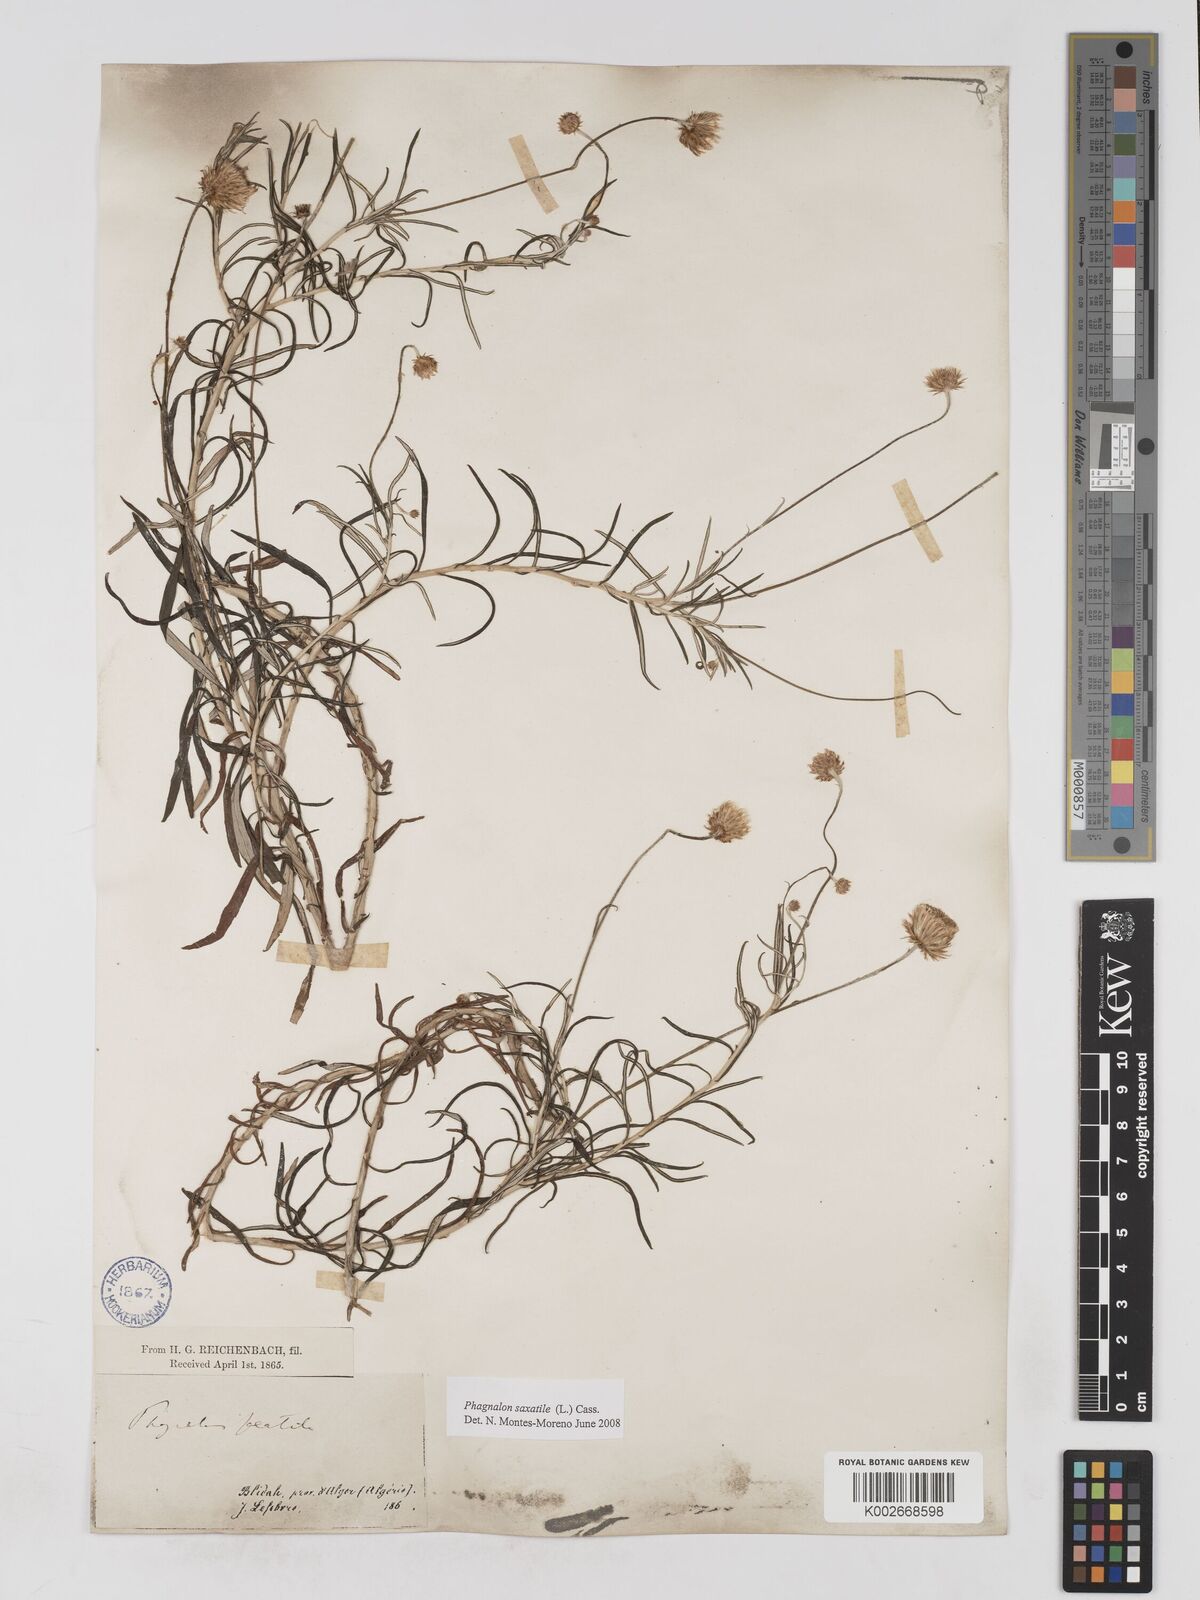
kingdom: Plantae
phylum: Tracheophyta
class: Magnoliopsida
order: Asterales
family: Asteraceae
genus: Phagnalon
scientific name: Phagnalon saxatile
